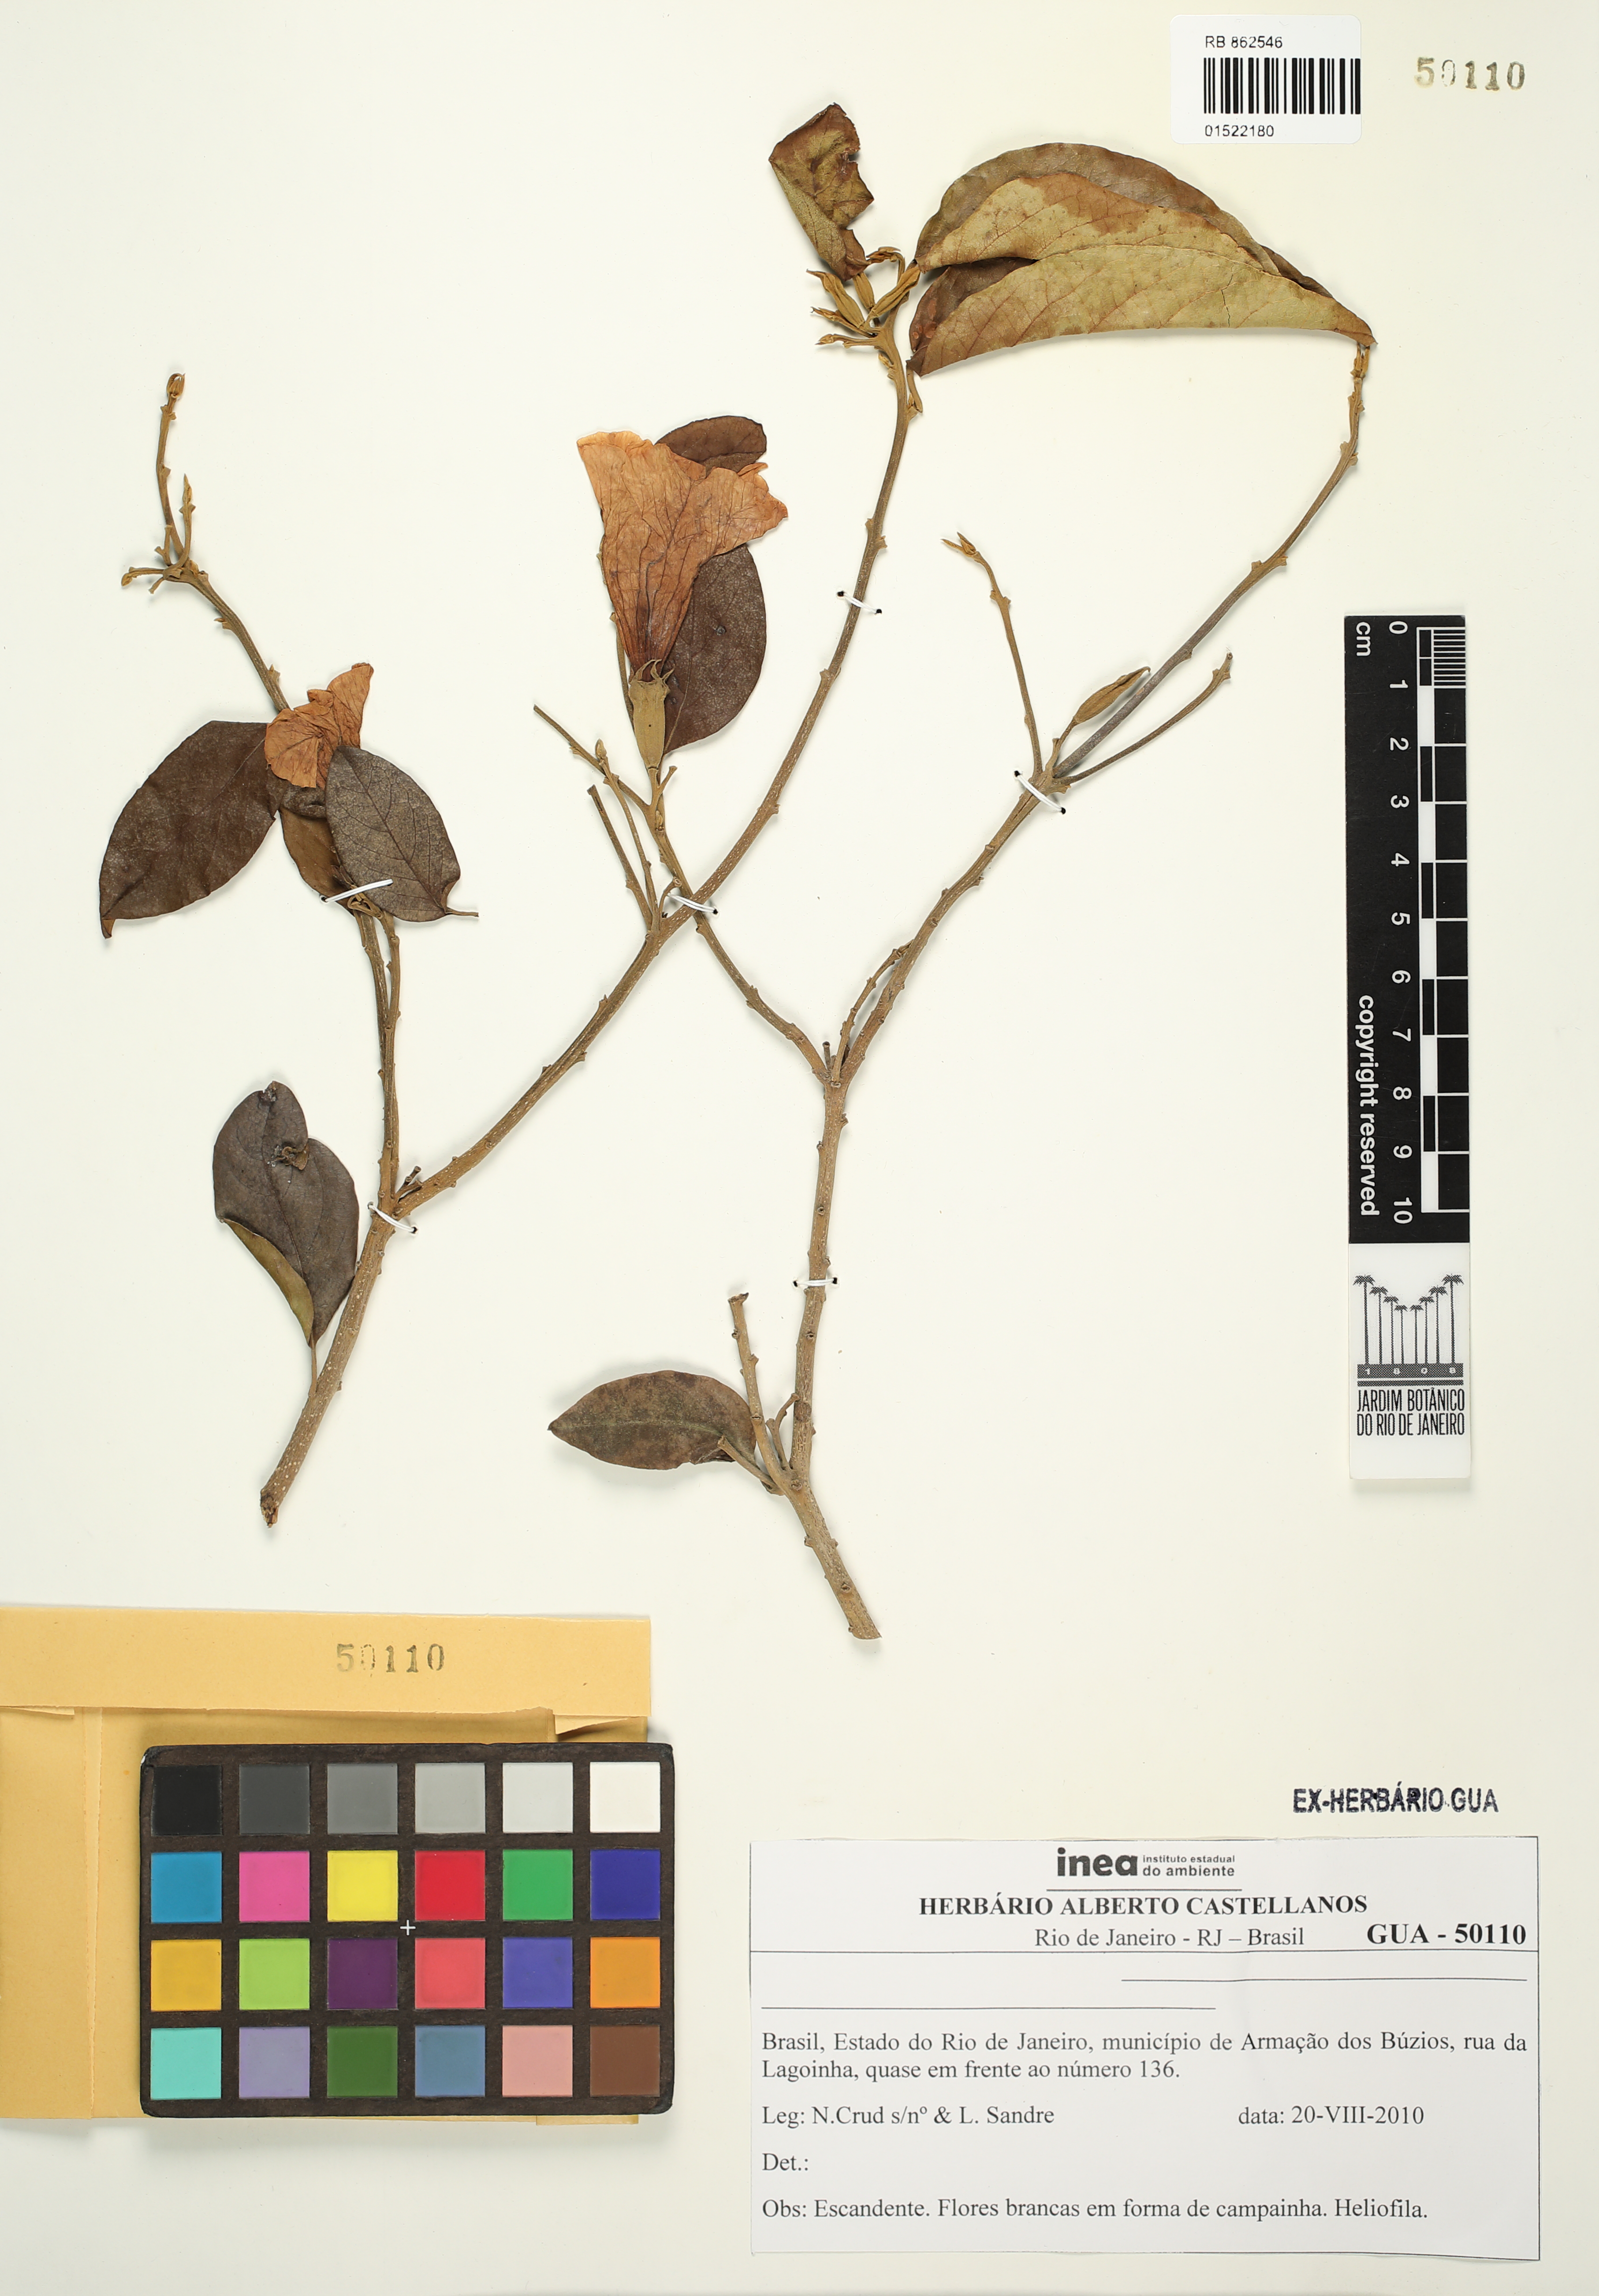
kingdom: Plantae
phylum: Tracheophyta
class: Magnoliopsida
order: Solanales
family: Convolvulaceae
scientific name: Convolvulaceae
